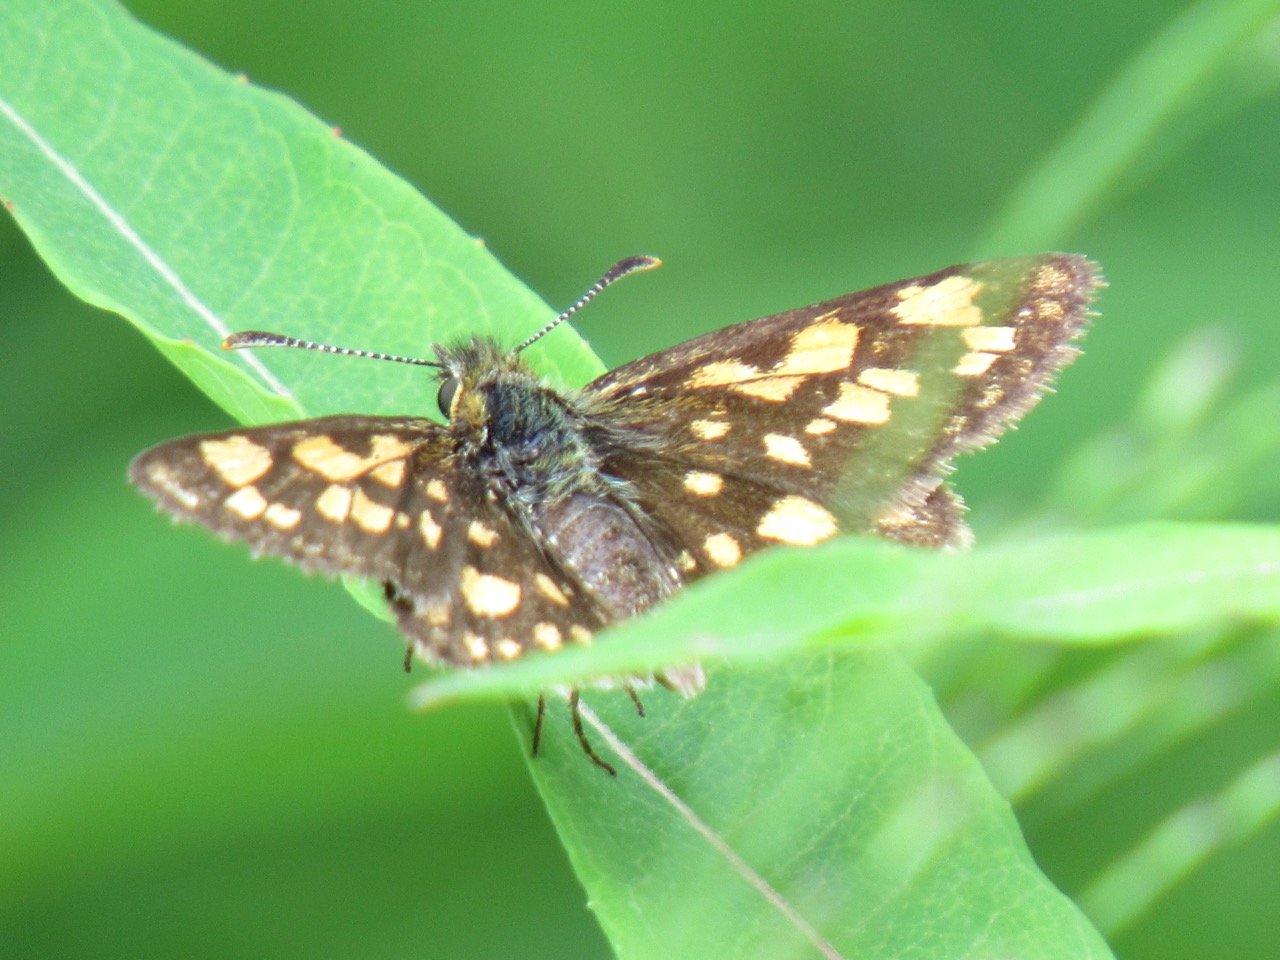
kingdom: Animalia
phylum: Arthropoda
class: Insecta
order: Lepidoptera
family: Hesperiidae
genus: Carterocephalus
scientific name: Carterocephalus palaemon
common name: Chequered Skipper
